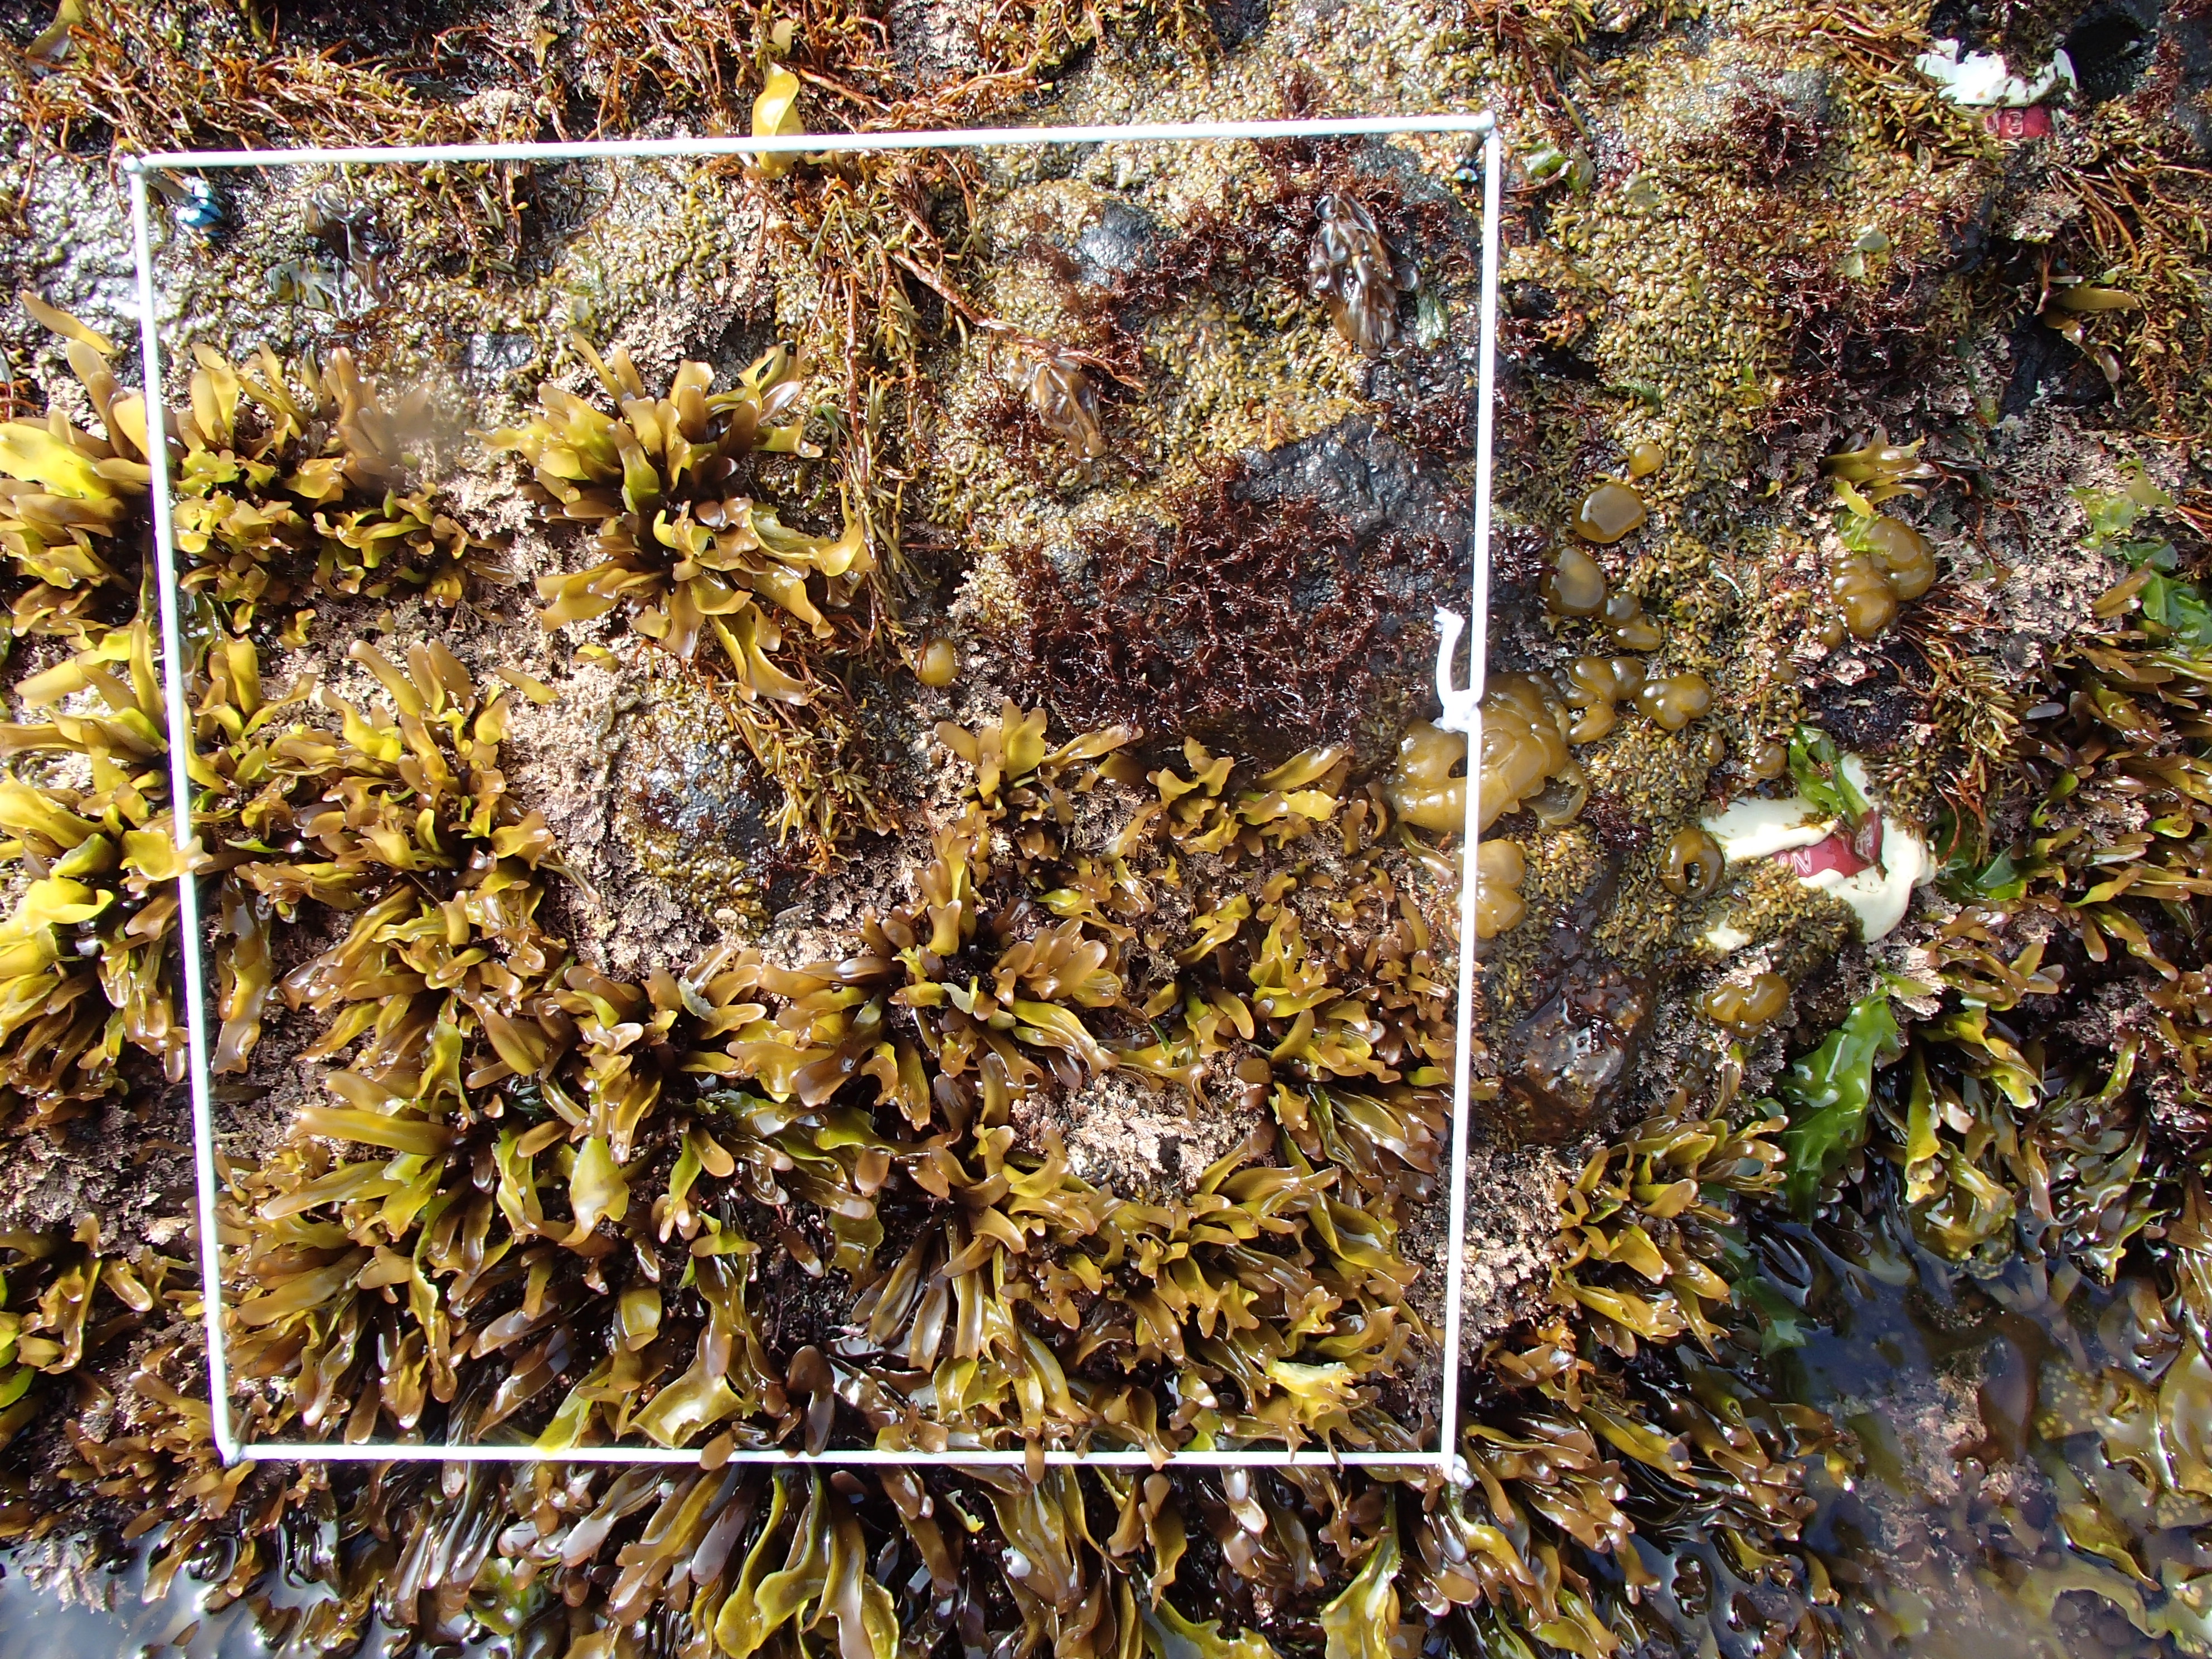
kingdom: Plantae
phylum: Rhodophyta
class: Florideophyceae
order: Gigartinales
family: Endocladiaceae
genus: Gloiopeltis
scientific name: Gloiopeltis furcata
